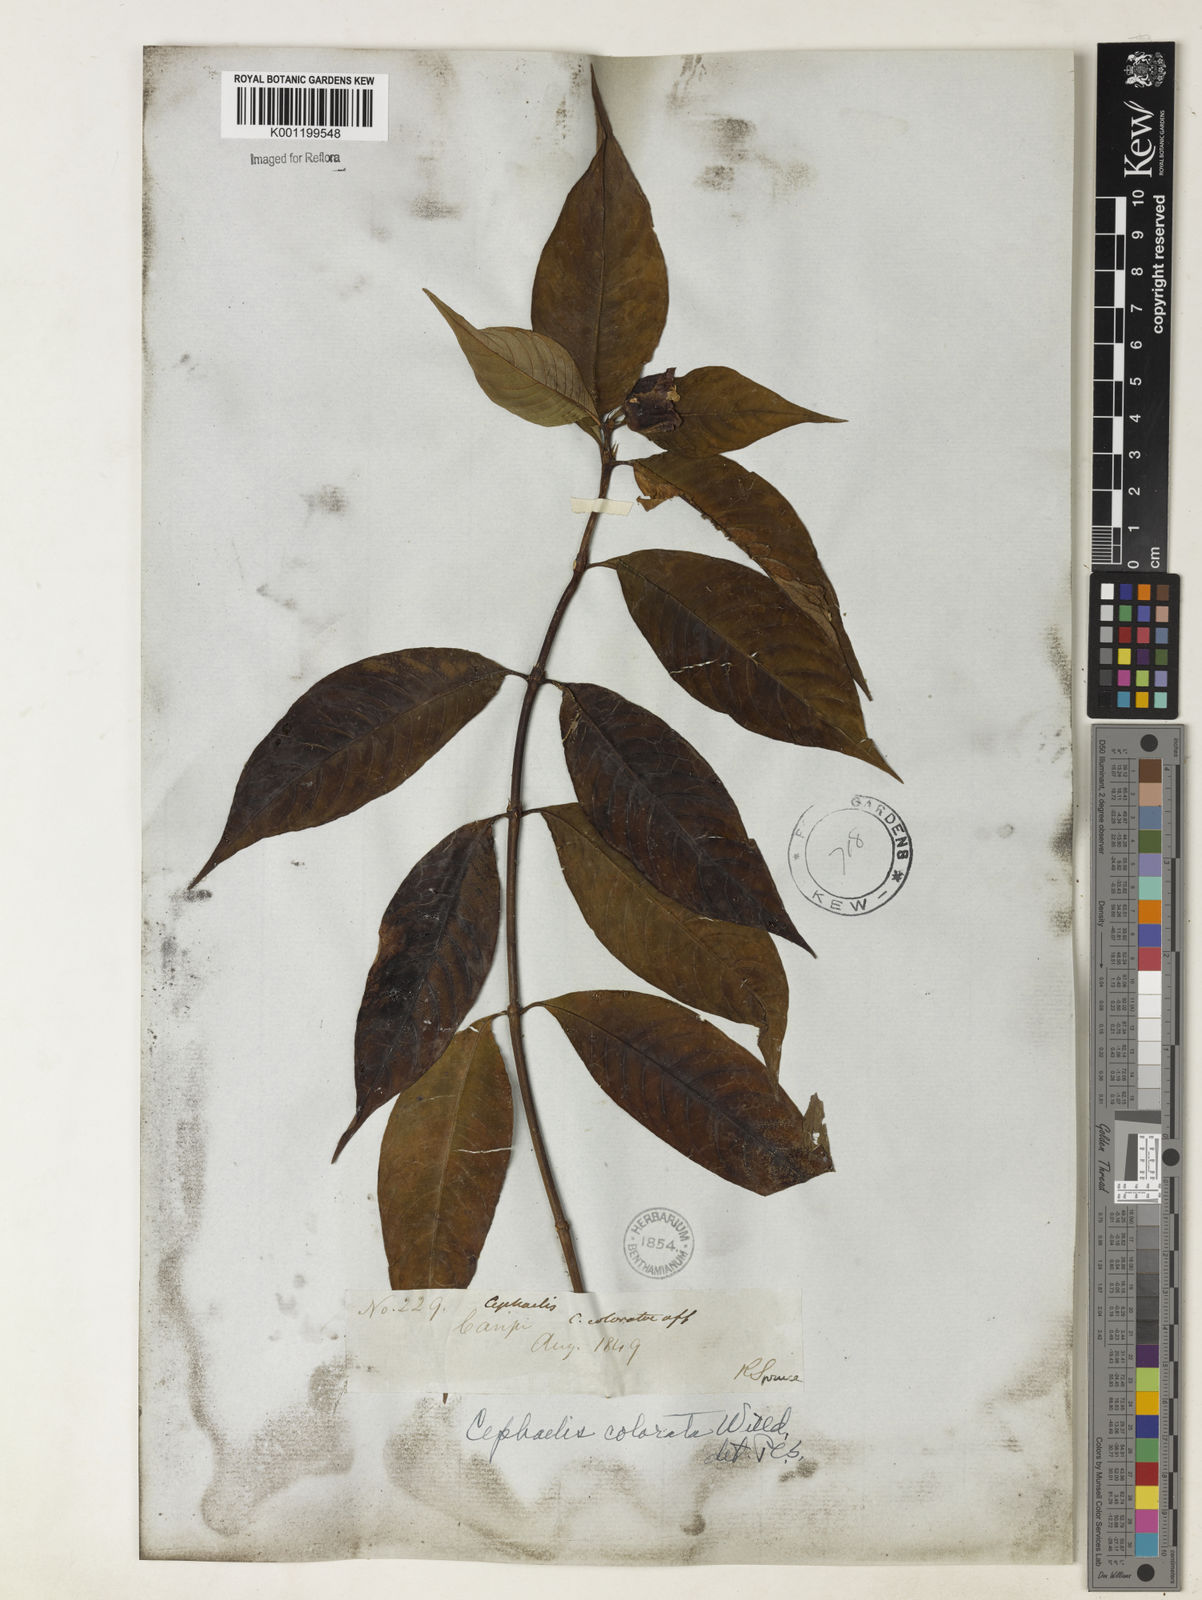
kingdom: Plantae
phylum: Tracheophyta
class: Magnoliopsida
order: Gentianales
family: Rubiaceae
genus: Psychotria
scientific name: Psychotria
